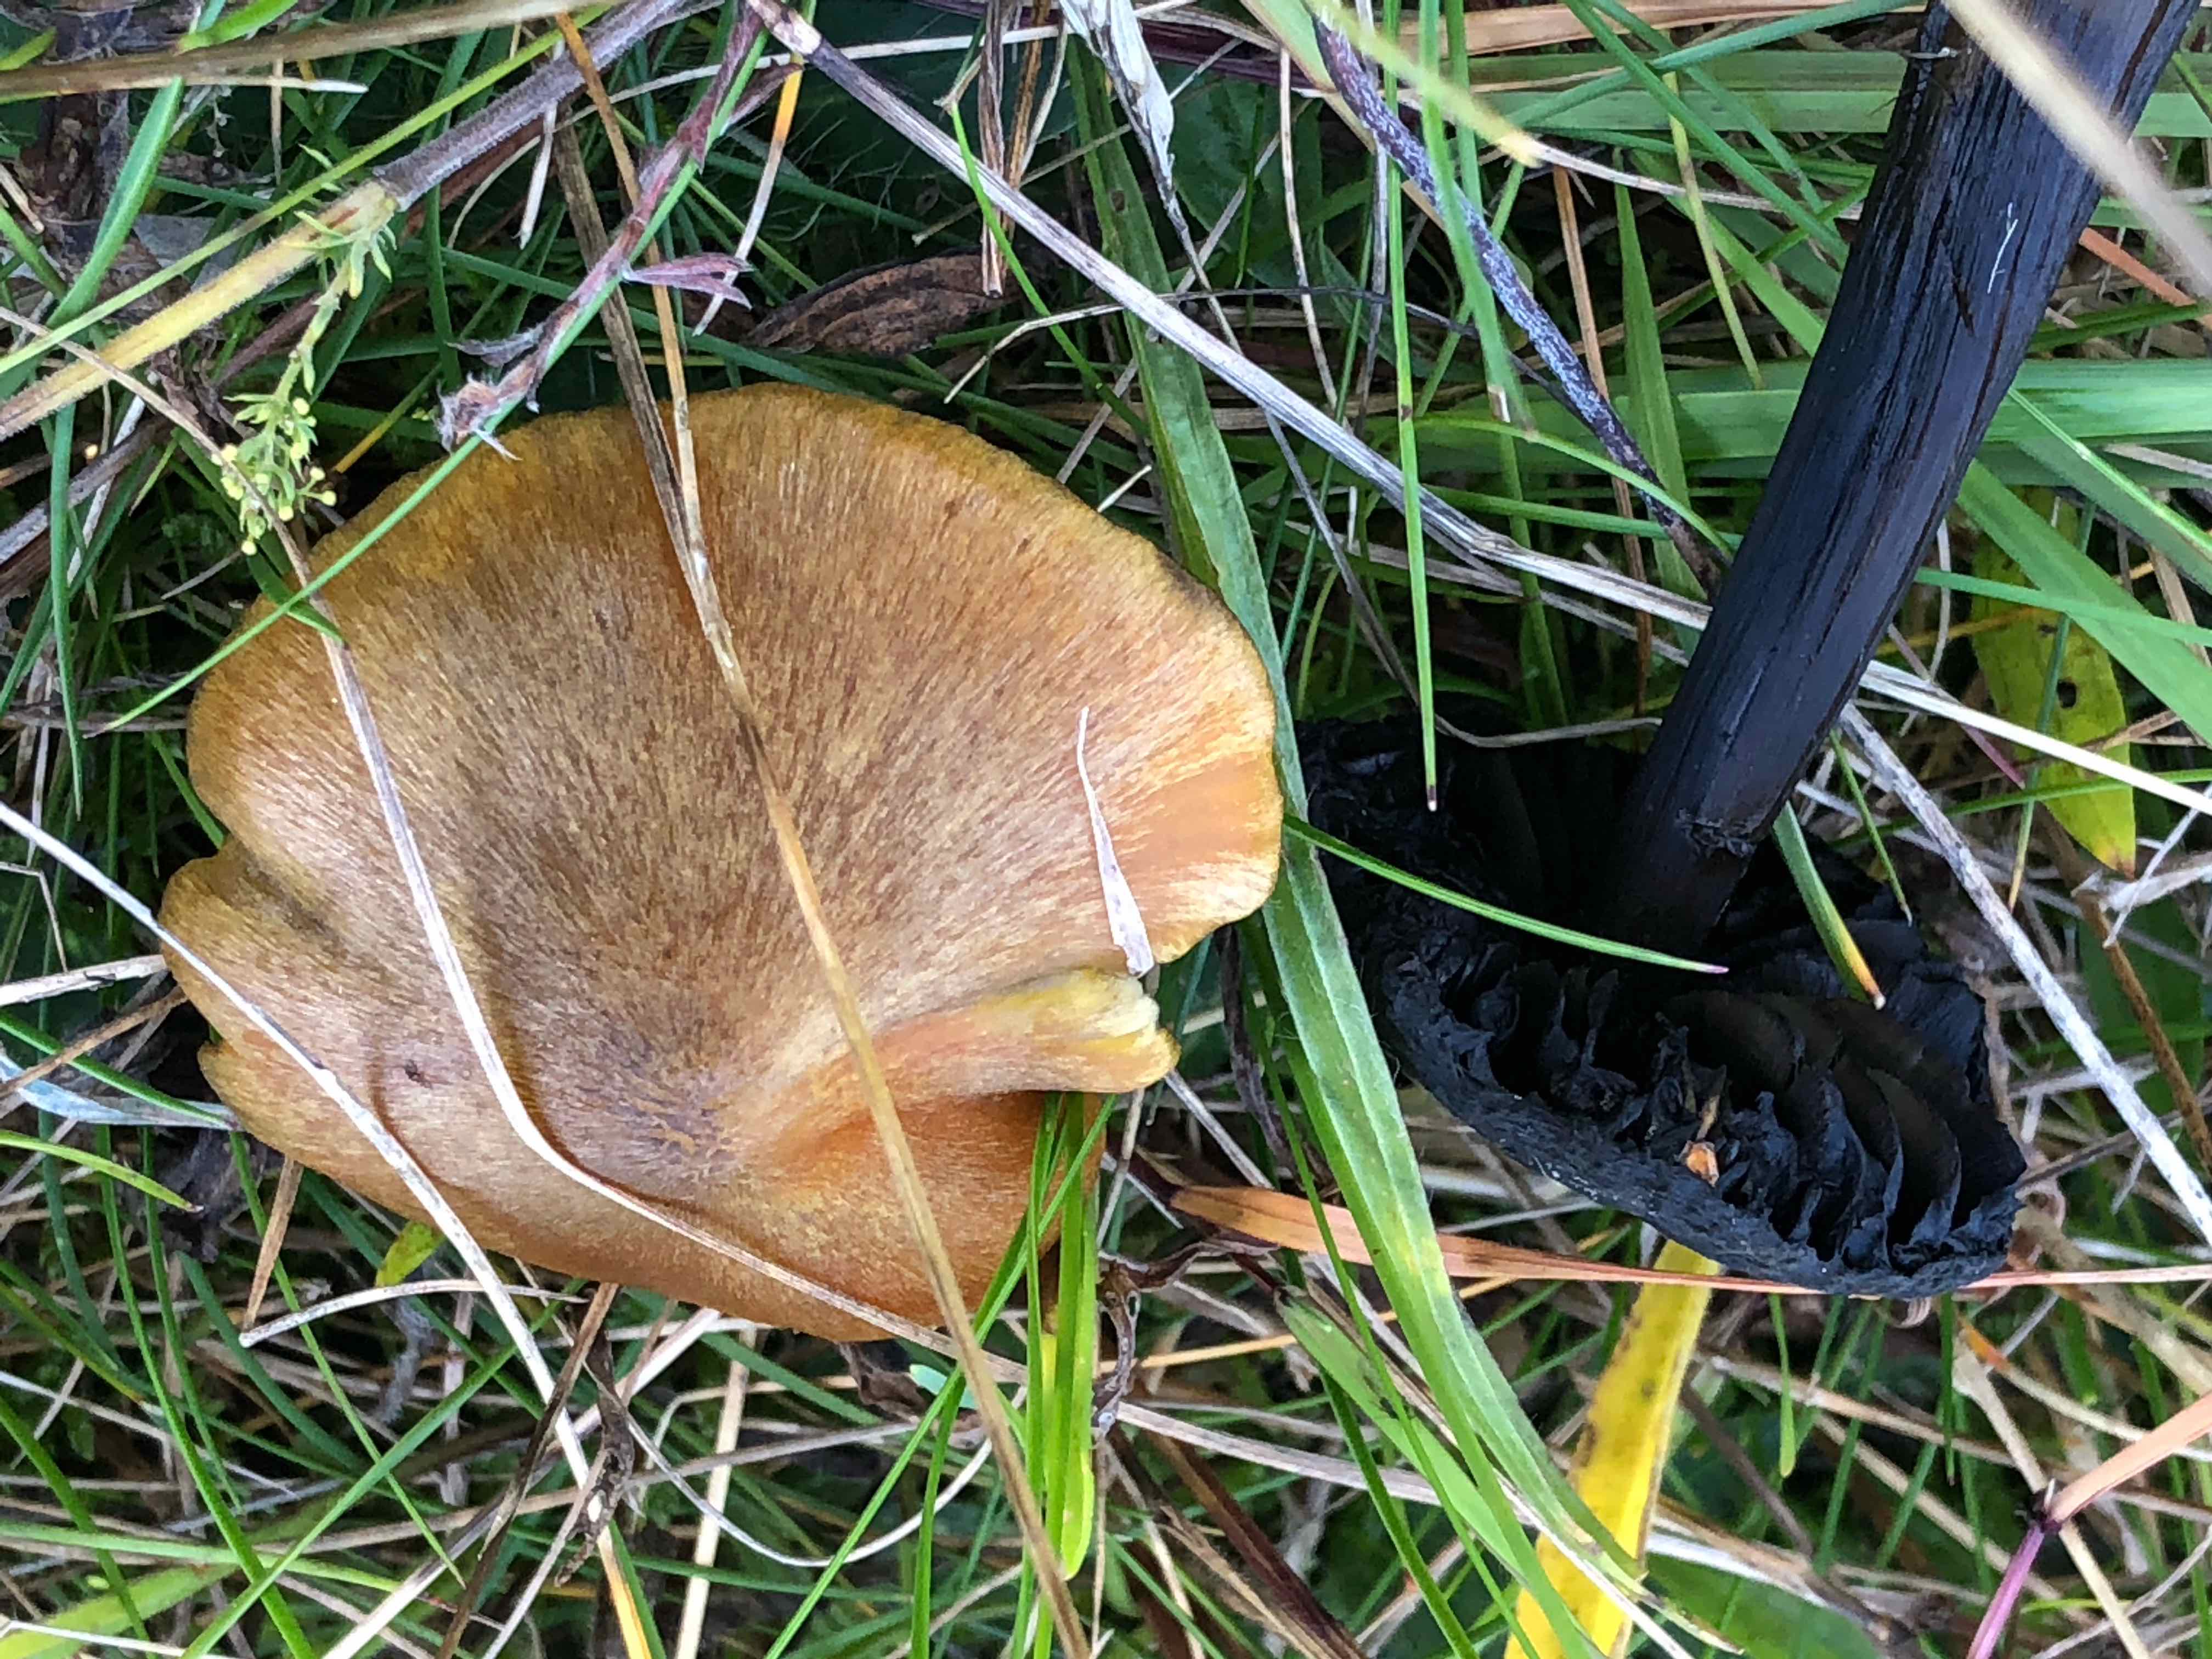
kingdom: Fungi
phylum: Basidiomycota
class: Agaricomycetes
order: Agaricales
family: Hygrophoraceae
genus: Hygrocybe
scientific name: Hygrocybe conica
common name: kegle-vokshat
